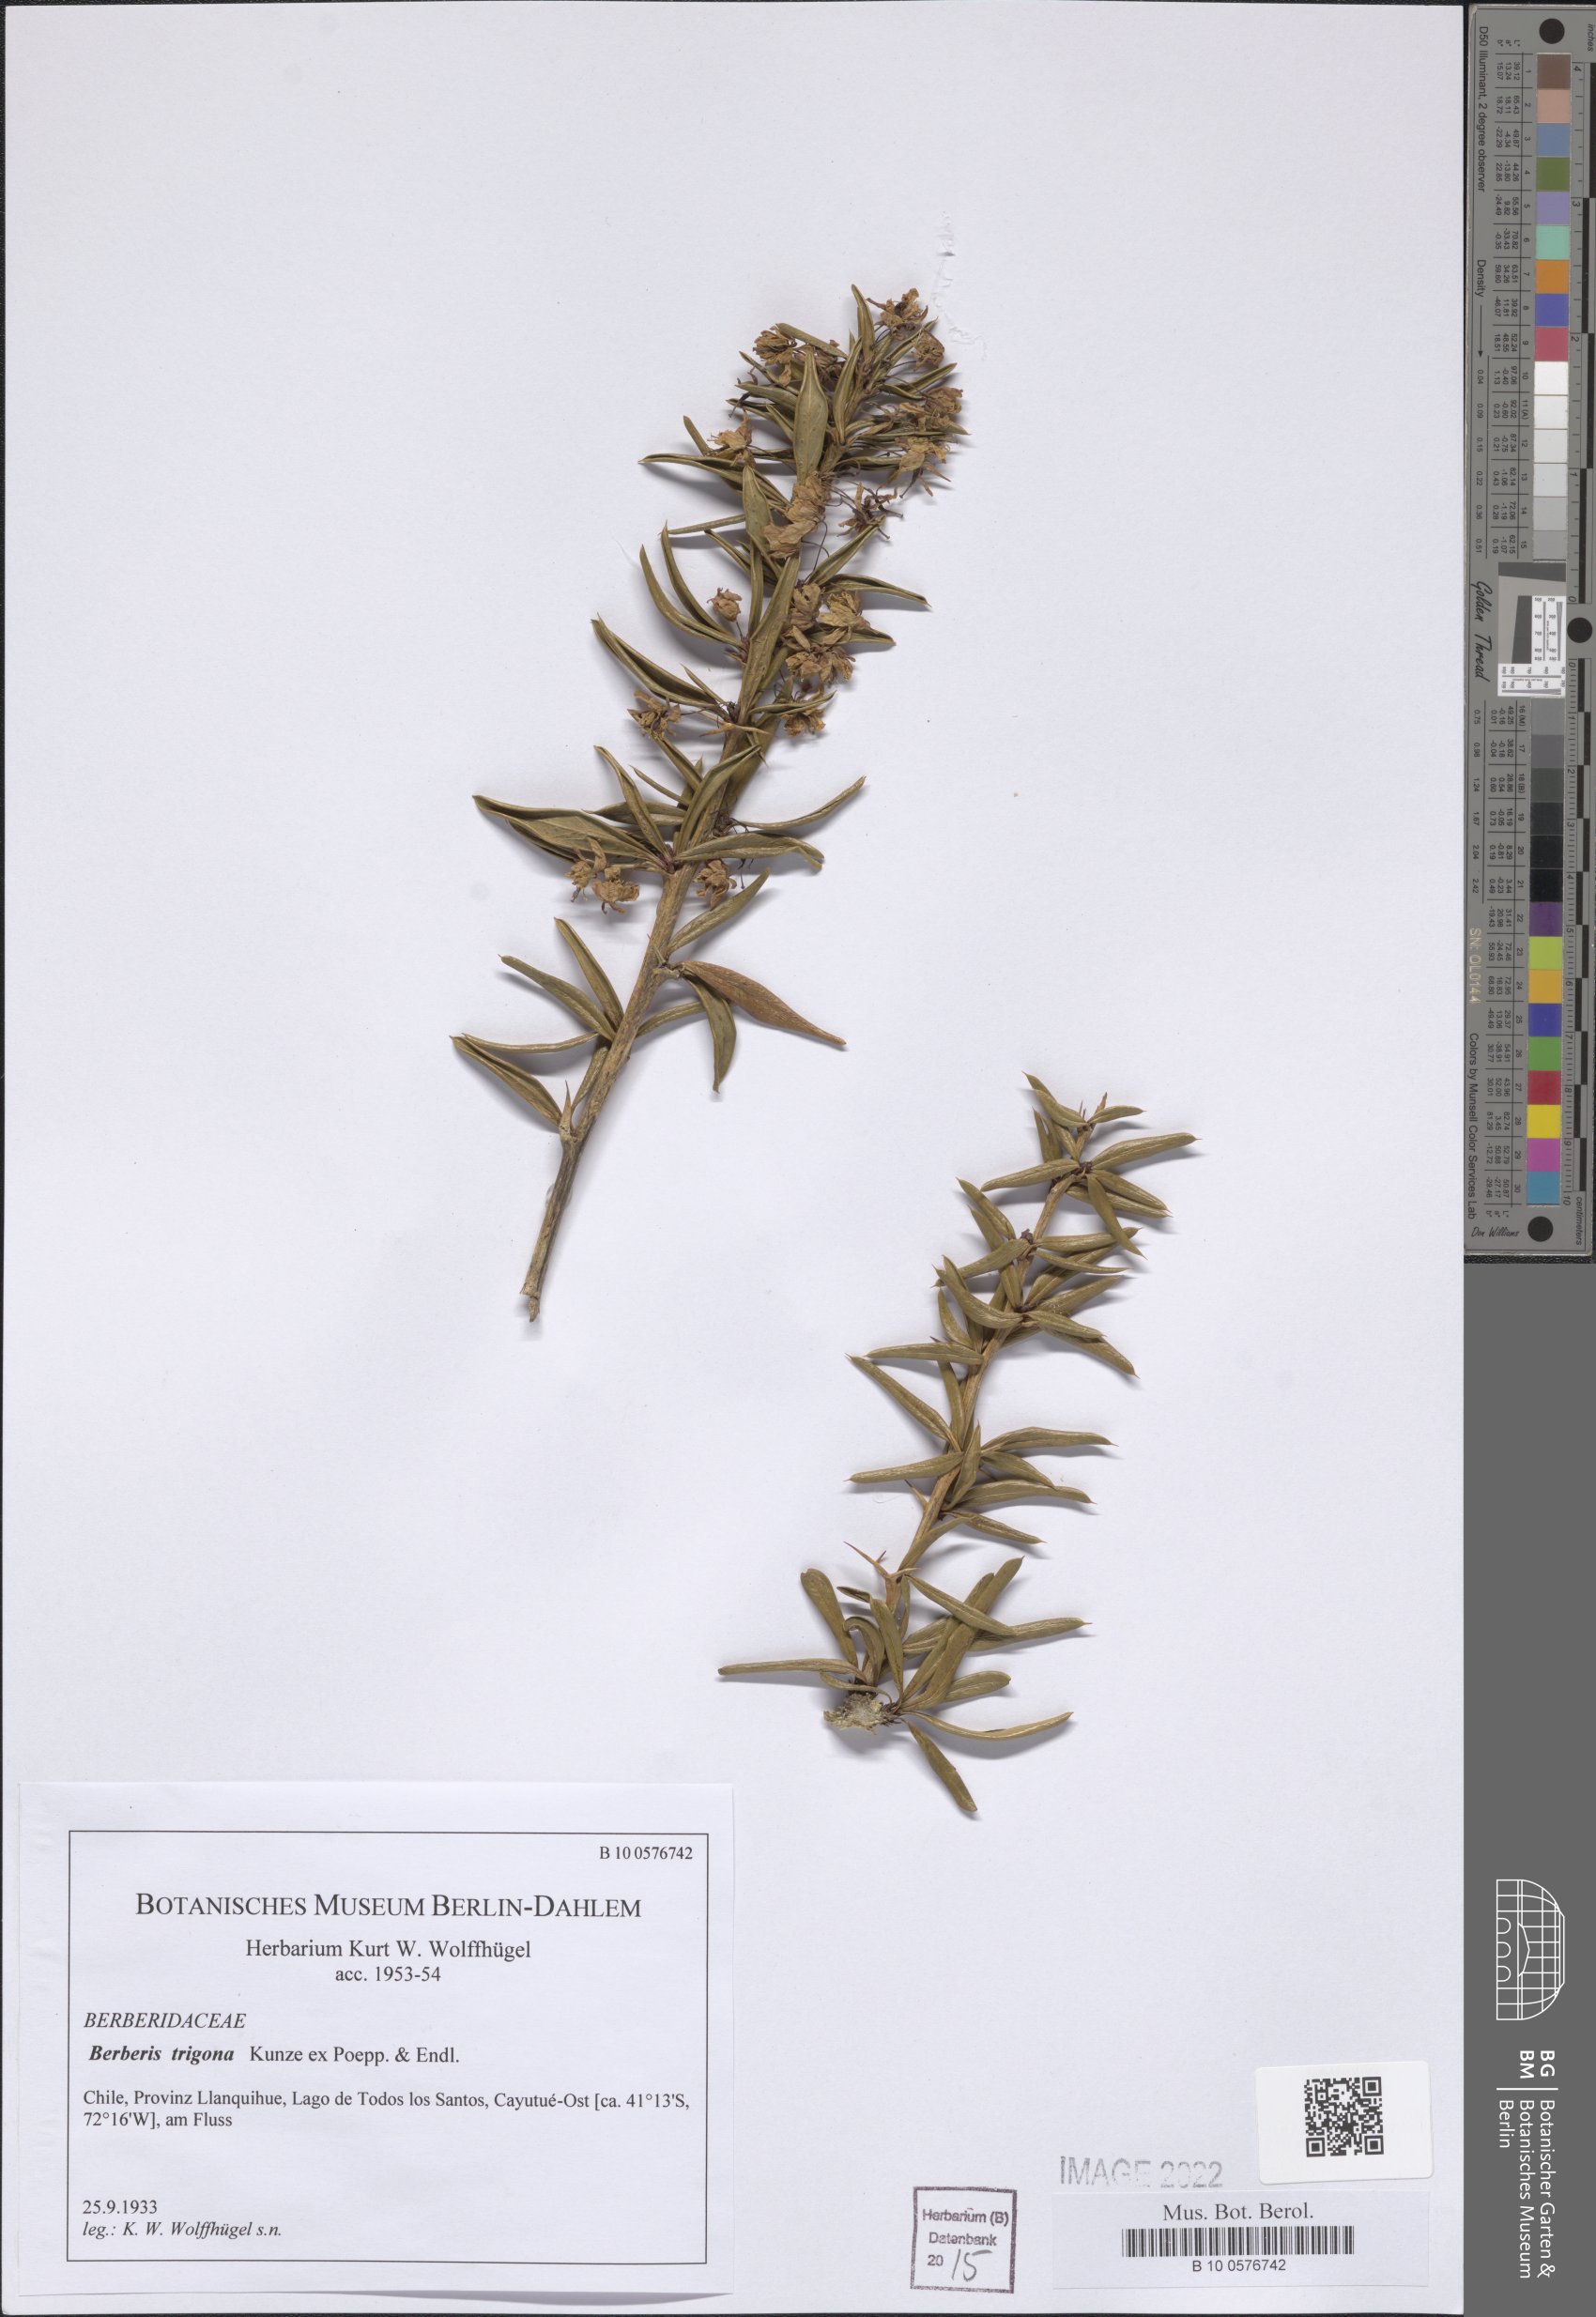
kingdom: Plantae
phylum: Tracheophyta
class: Magnoliopsida
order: Ranunculales
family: Berberidaceae
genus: Berberis
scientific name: Berberis trigona
